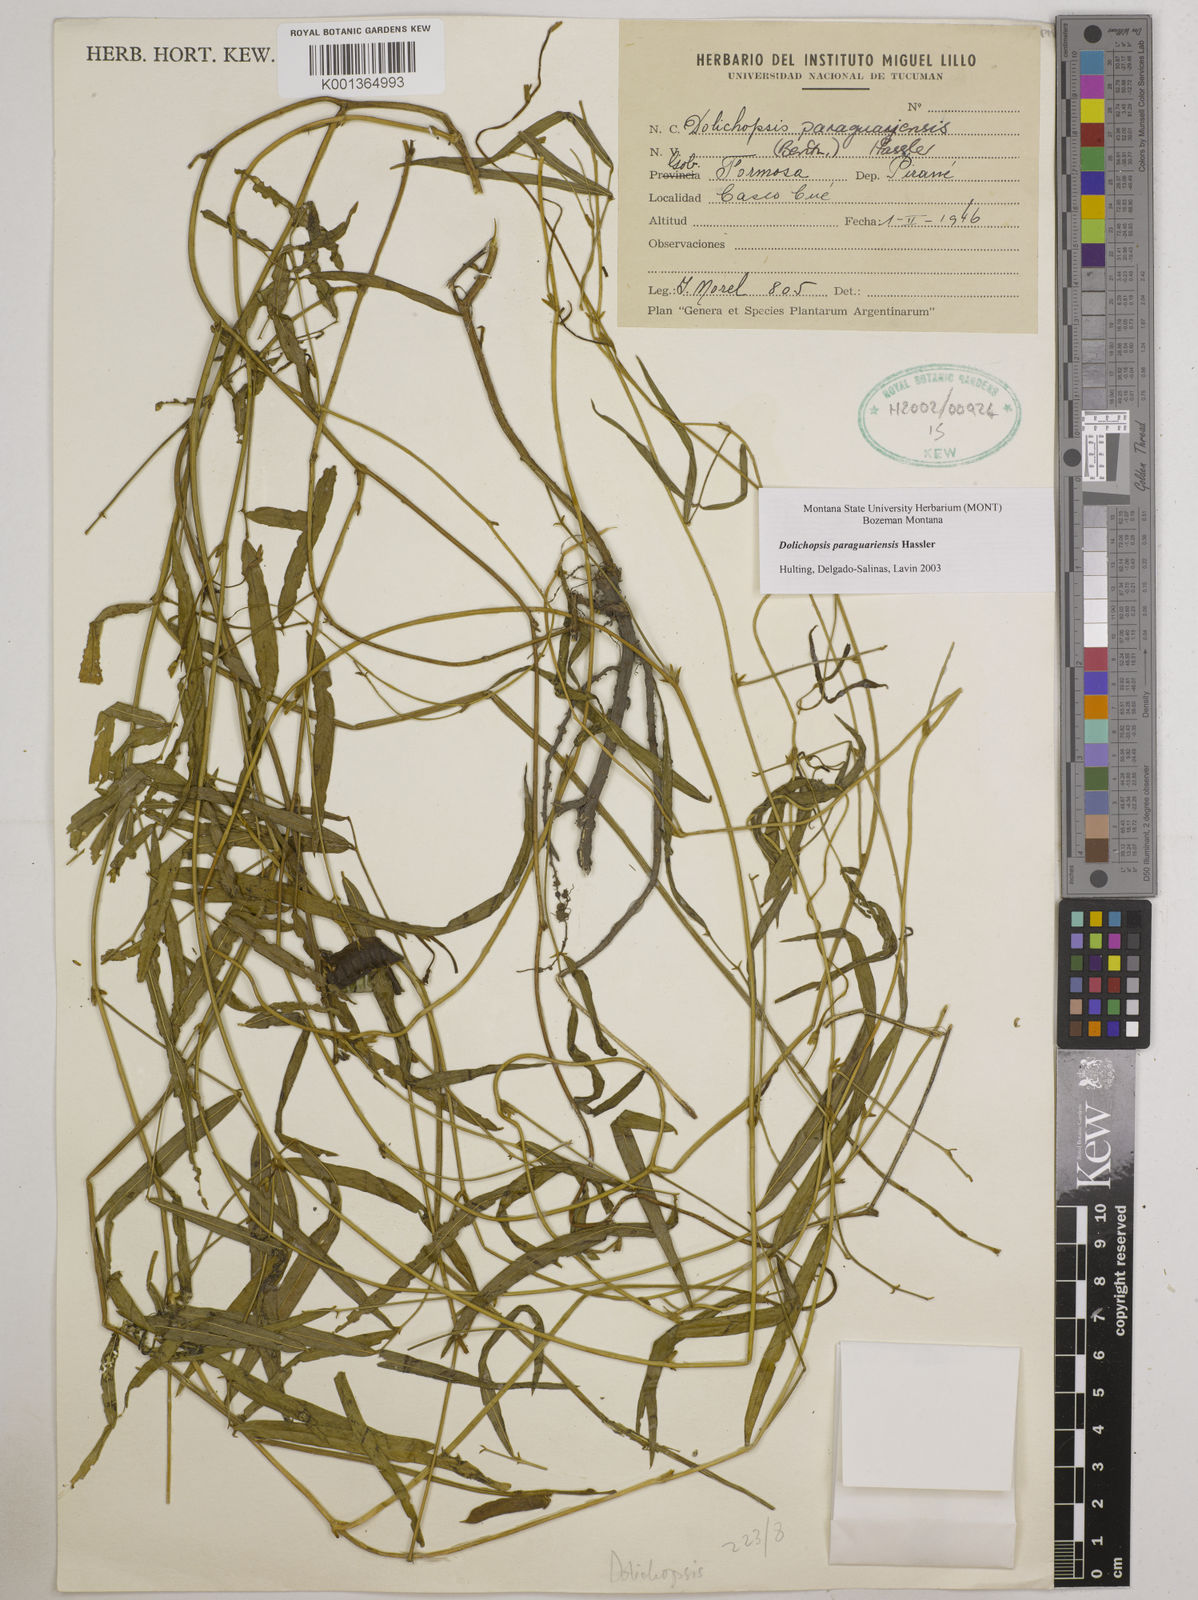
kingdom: Plantae
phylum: Tracheophyta
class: Magnoliopsida
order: Fabales
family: Fabaceae
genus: Dolichopsis
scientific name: Dolichopsis paraguariensis
